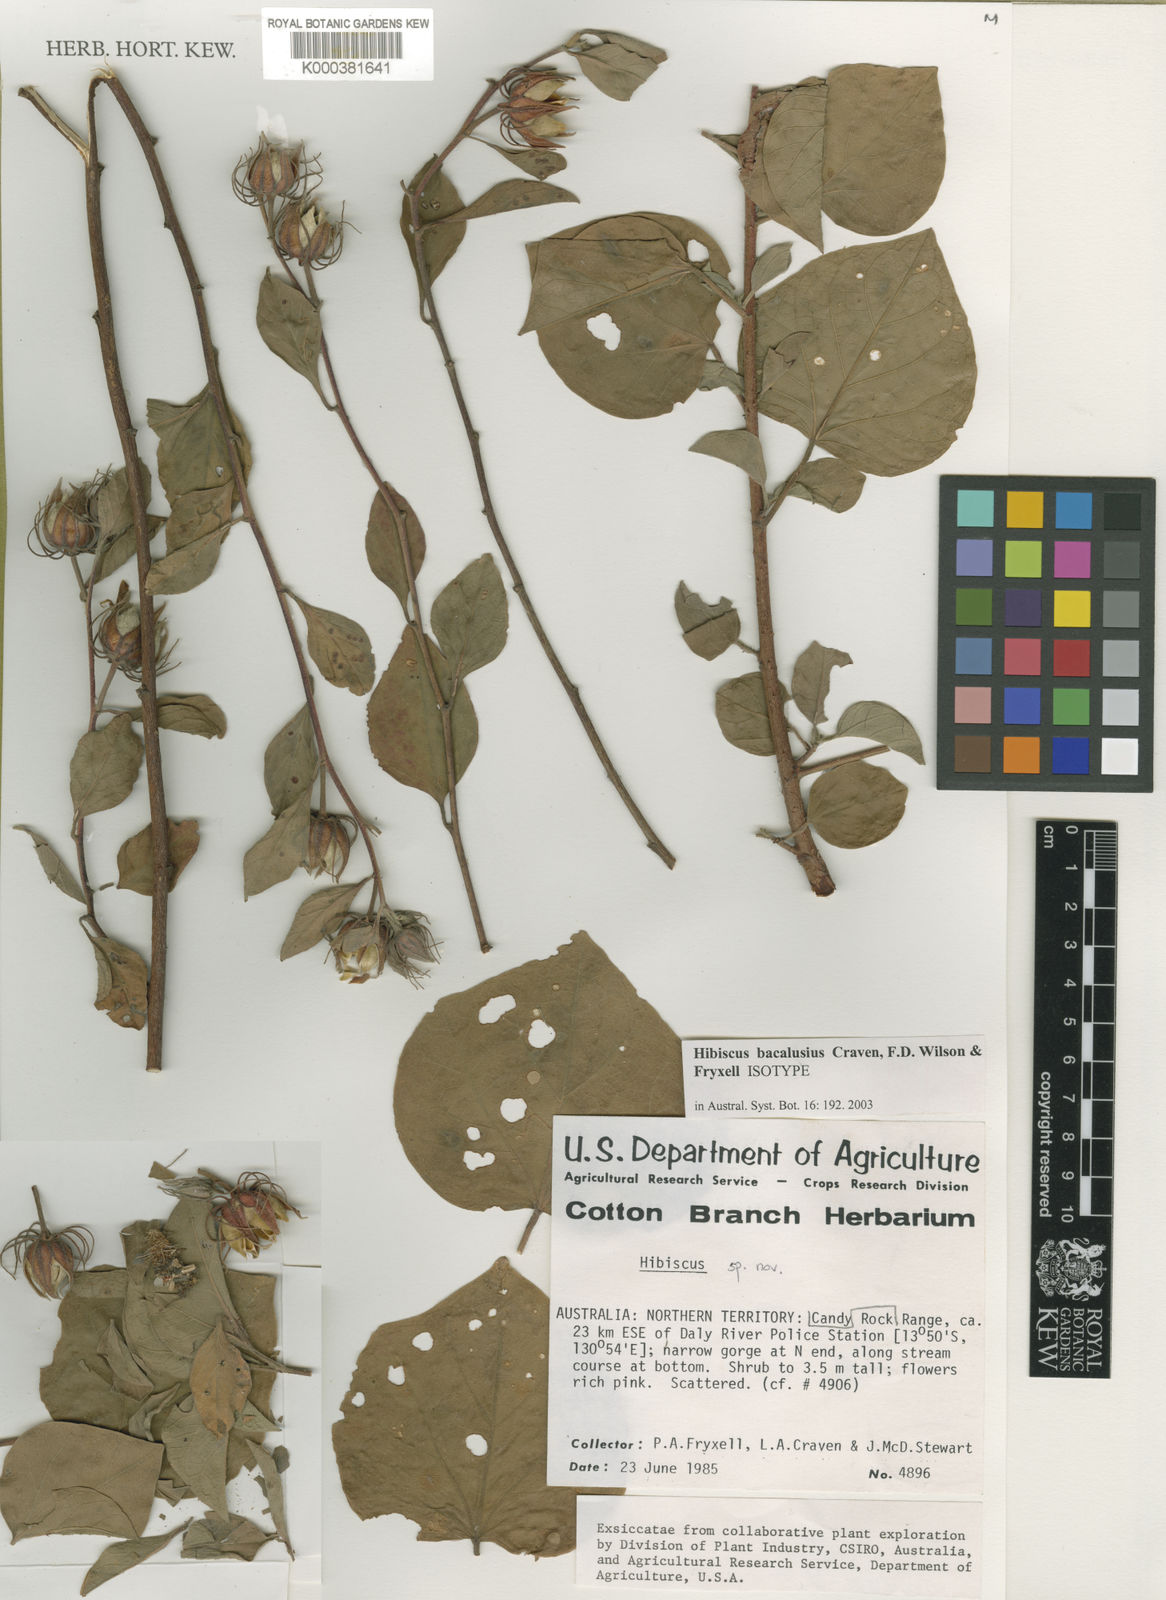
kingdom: Plantae
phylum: Tracheophyta
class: Magnoliopsida
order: Malvales
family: Malvaceae
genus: Hibiscus
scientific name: Hibiscus bacalusius
